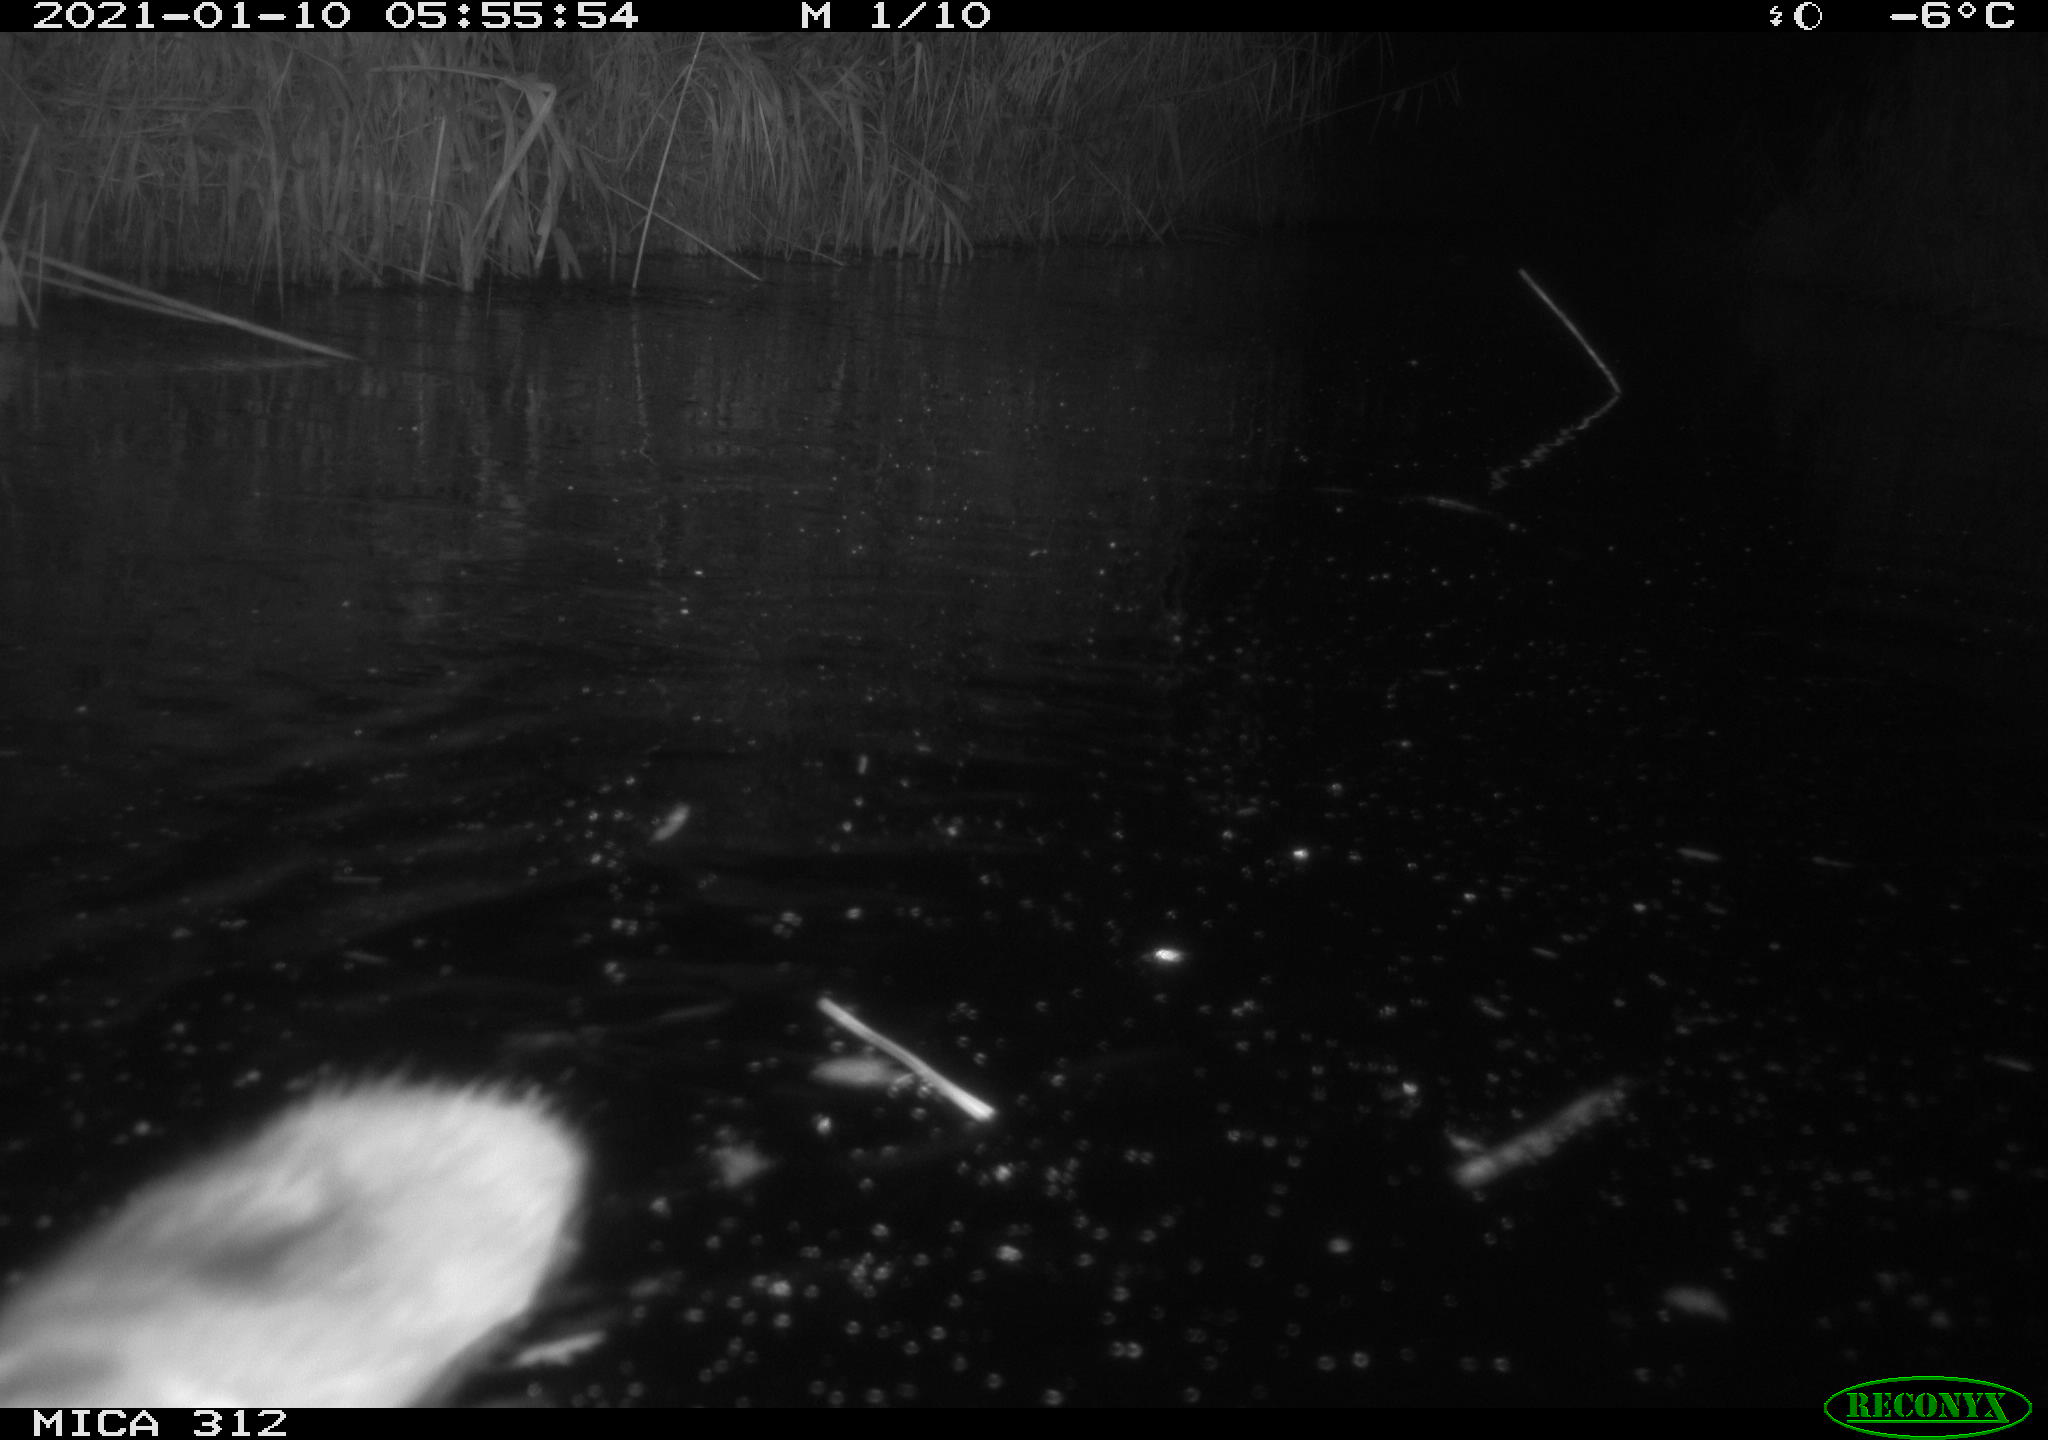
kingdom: Animalia
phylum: Chordata
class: Mammalia
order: Rodentia
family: Muridae
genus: Rattus
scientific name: Rattus norvegicus
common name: Brown rat
